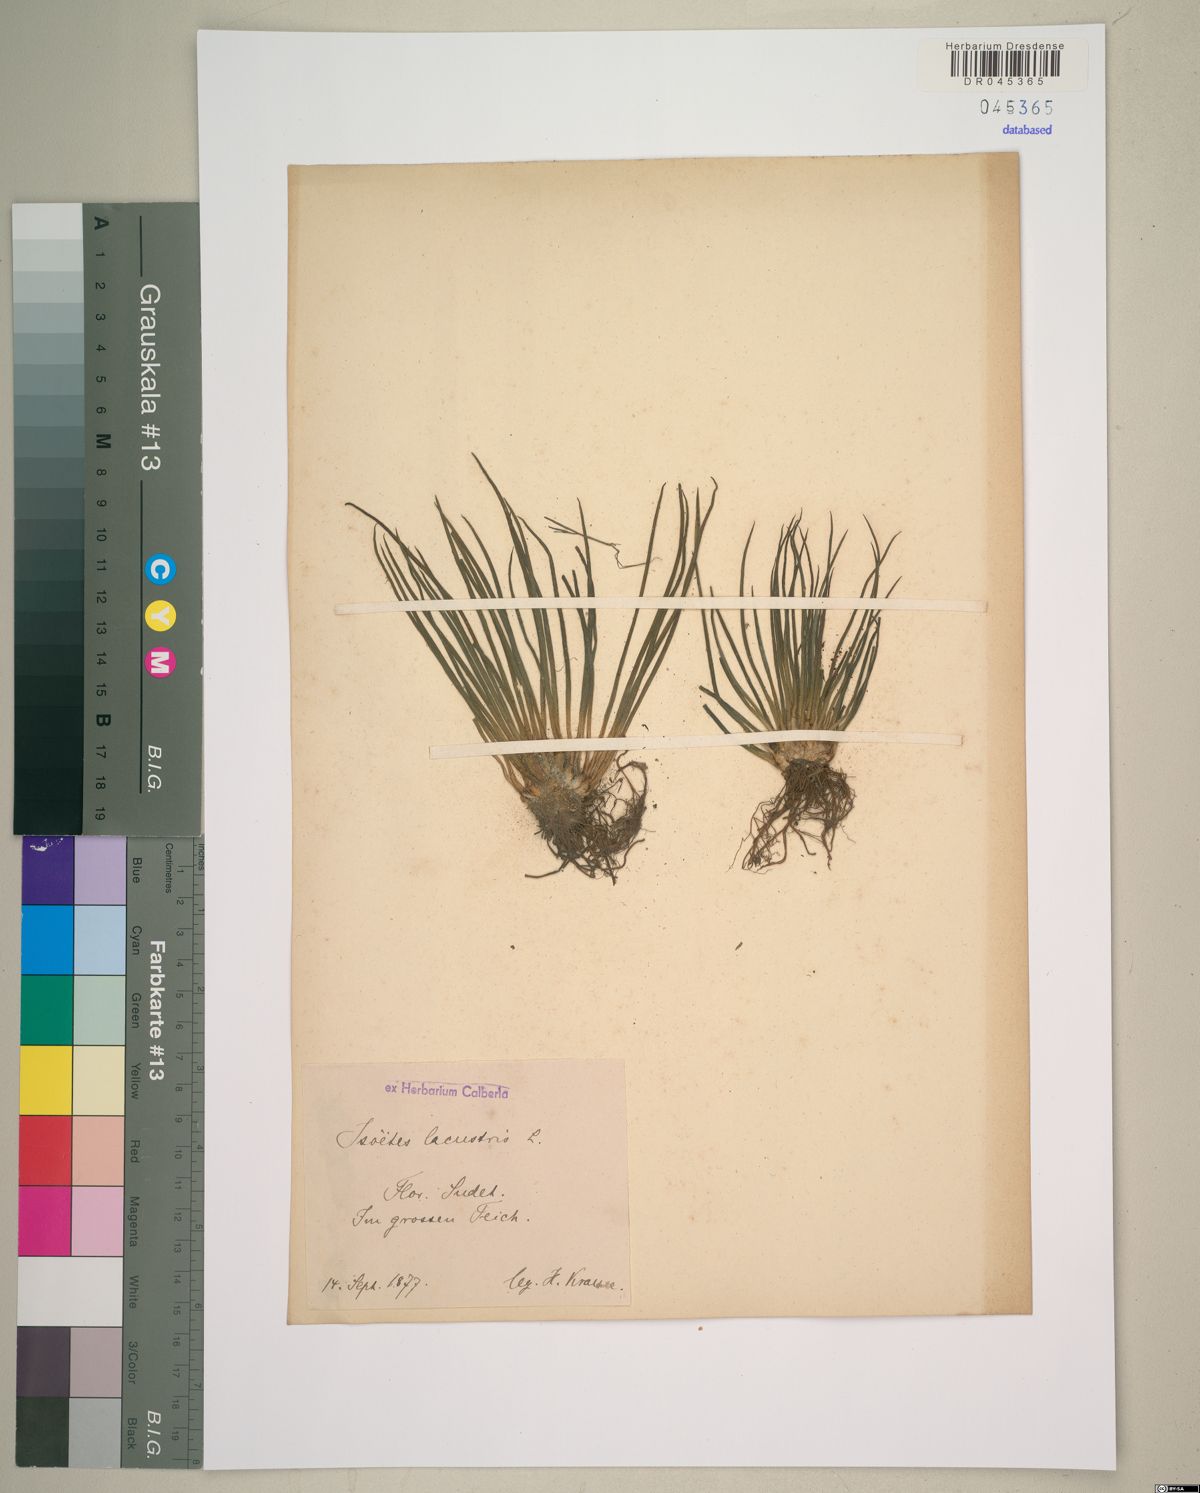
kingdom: Plantae
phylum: Tracheophyta
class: Lycopodiopsida
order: Isoetales
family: Isoetaceae
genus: Isoetes
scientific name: Isoetes lacustris
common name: Common quillwort
